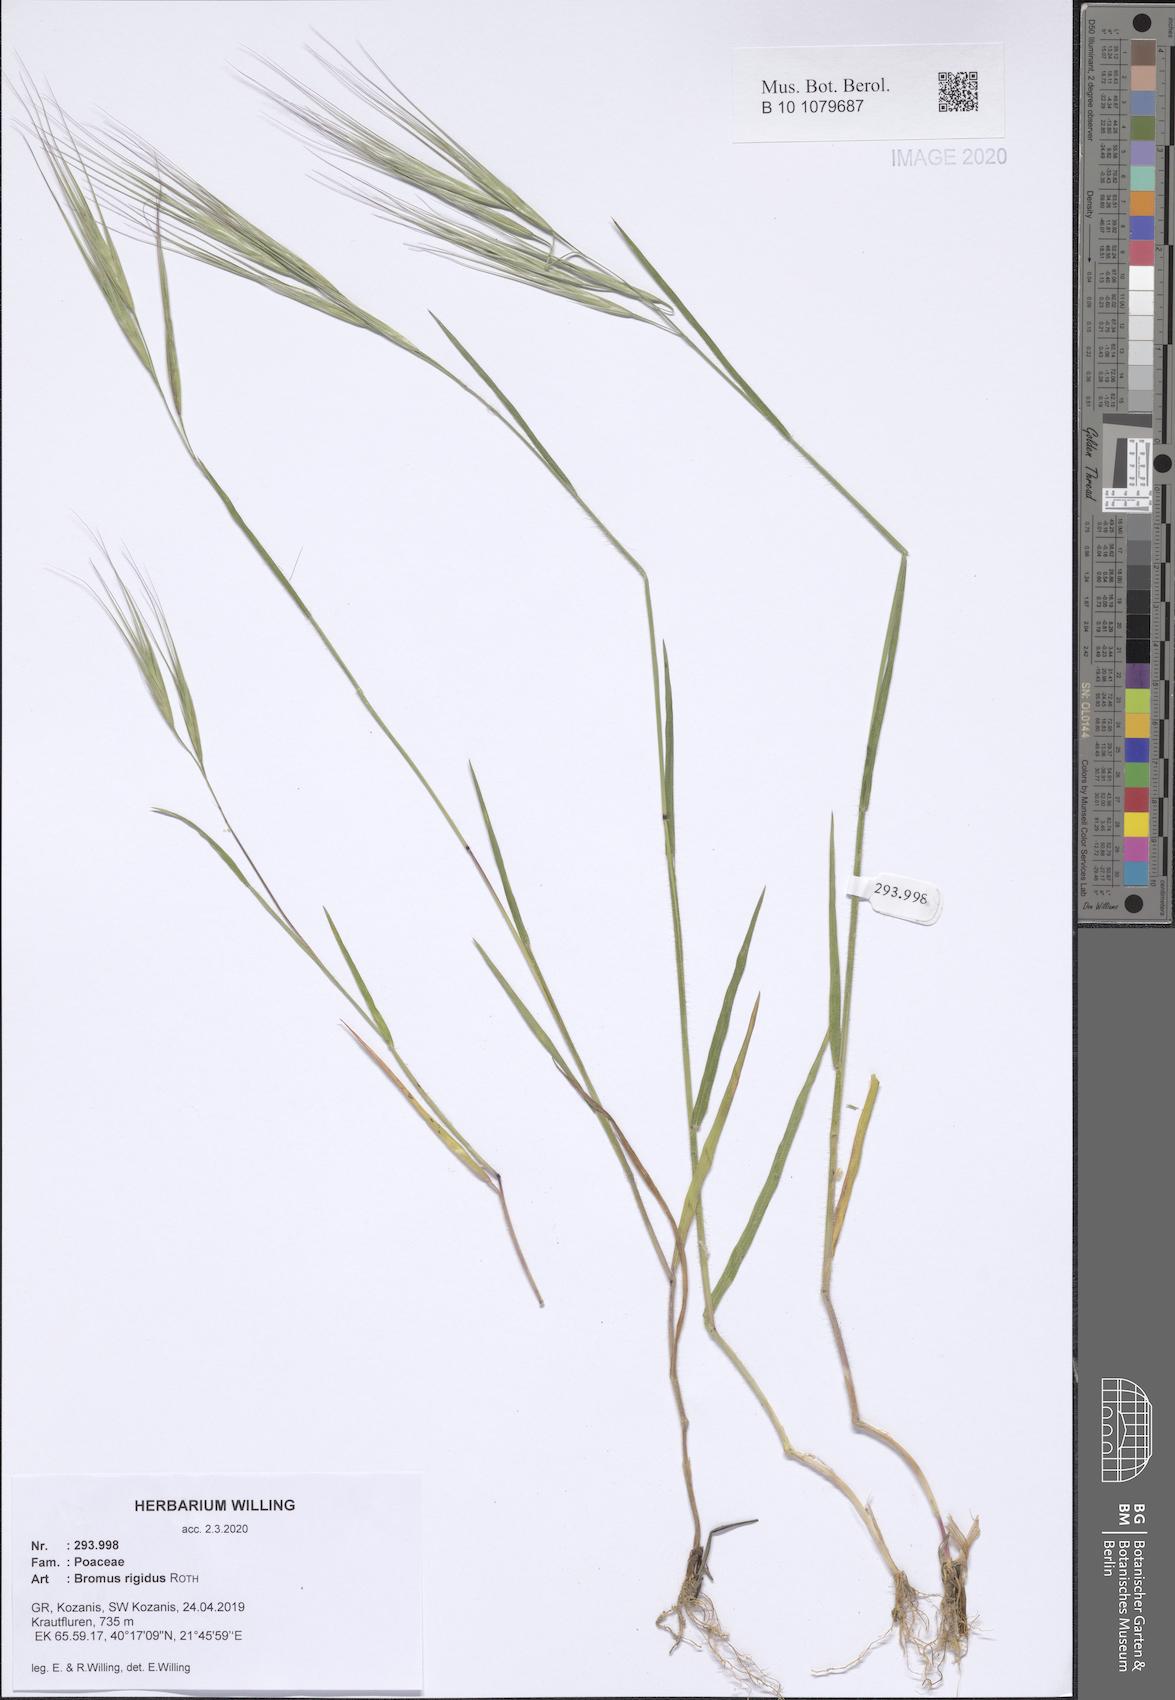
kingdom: Plantae
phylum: Tracheophyta
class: Liliopsida
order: Poales
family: Poaceae
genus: Bromus
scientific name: Bromus rigidus
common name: Ripgut brome
